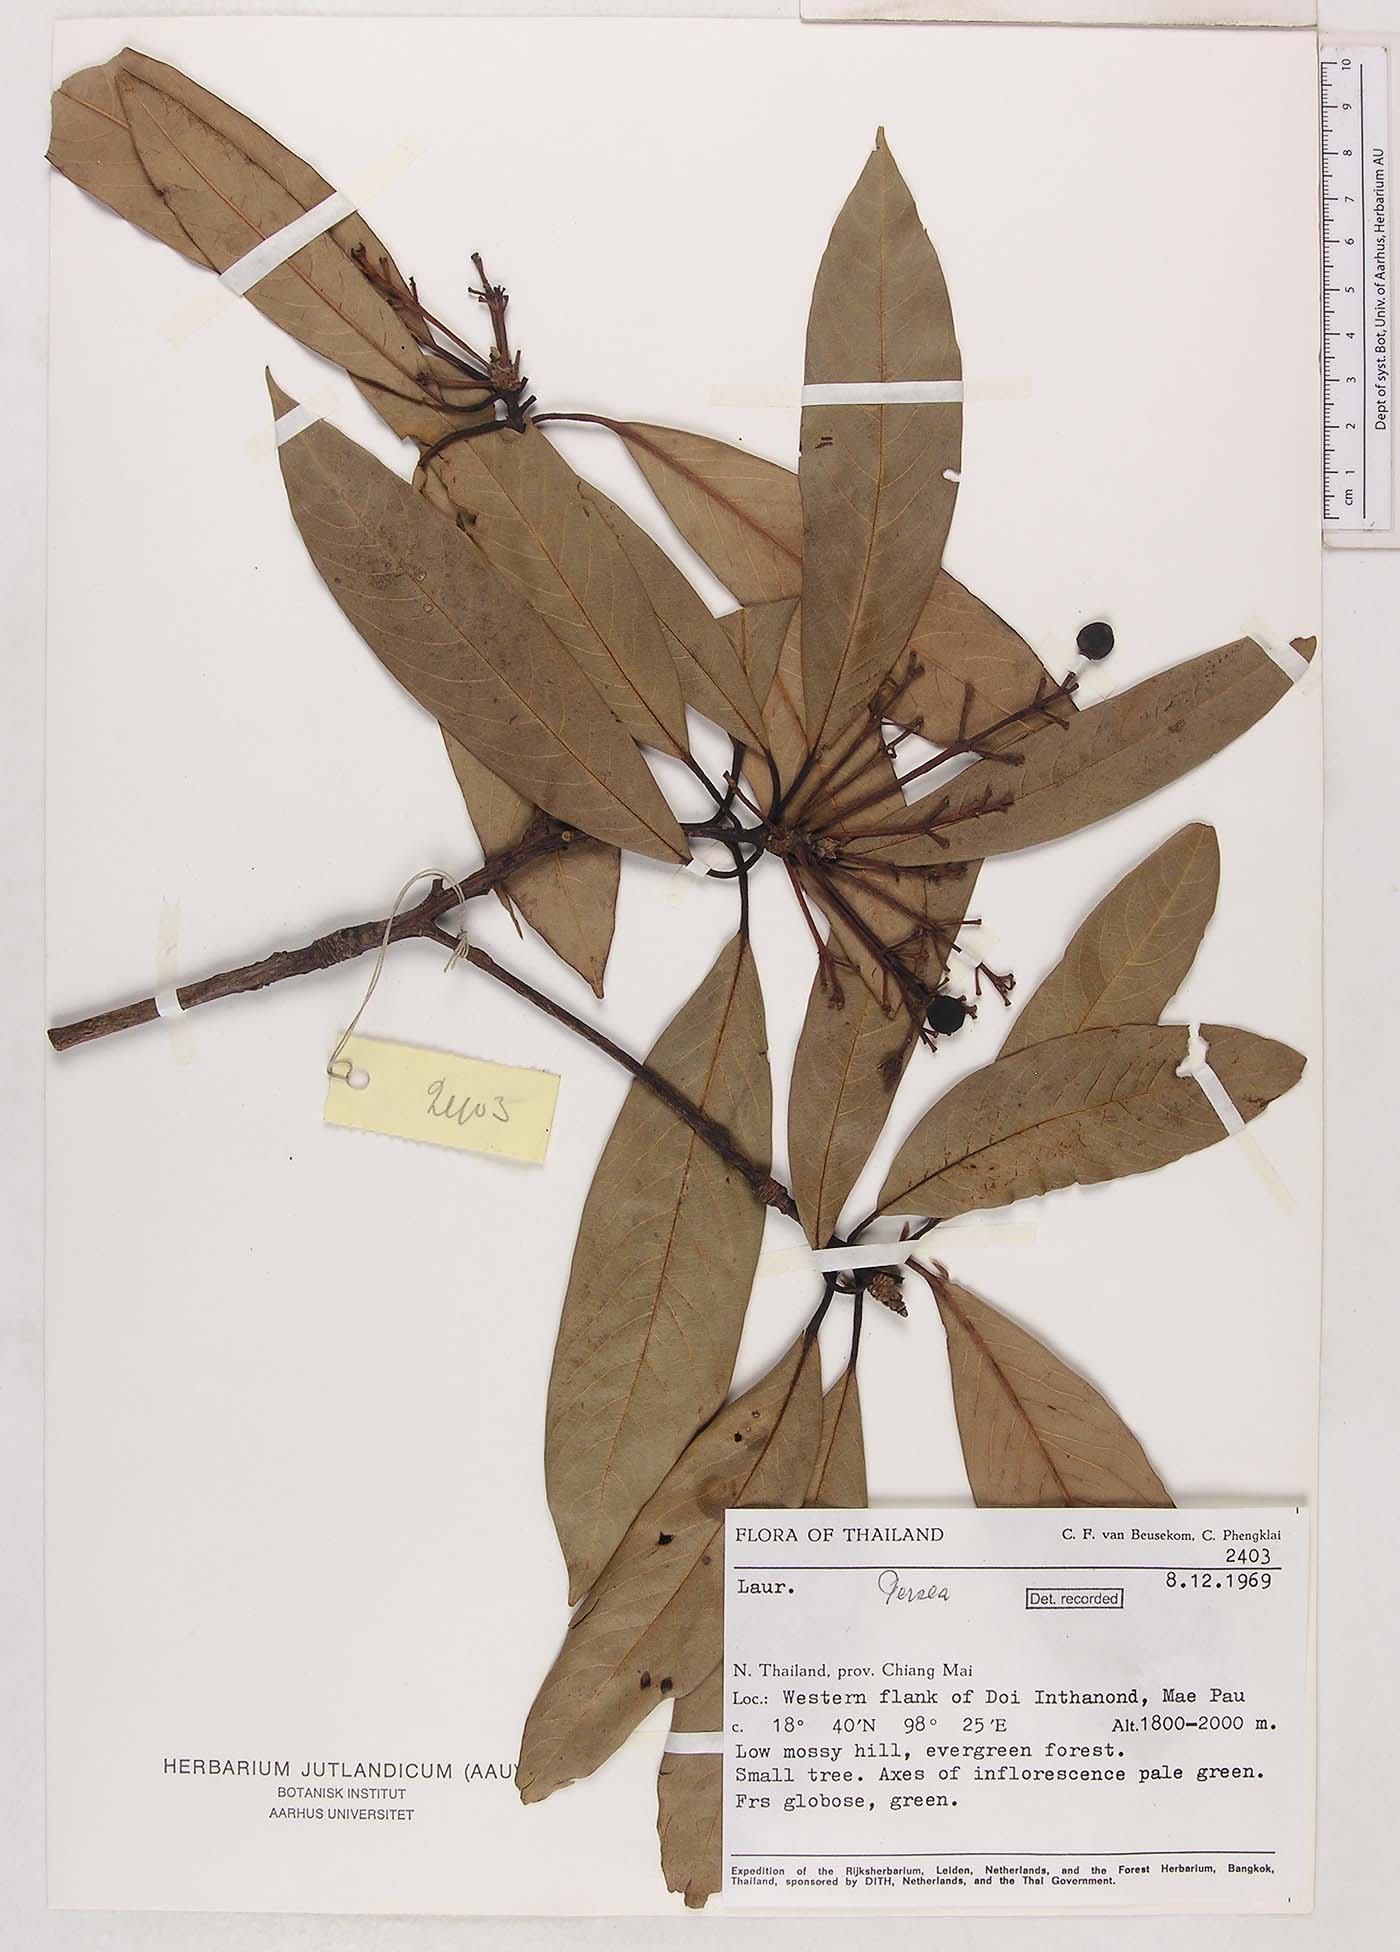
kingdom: Plantae
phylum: Tracheophyta
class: Magnoliopsida
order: Laurales
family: Lauraceae
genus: Persea
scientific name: Persea
